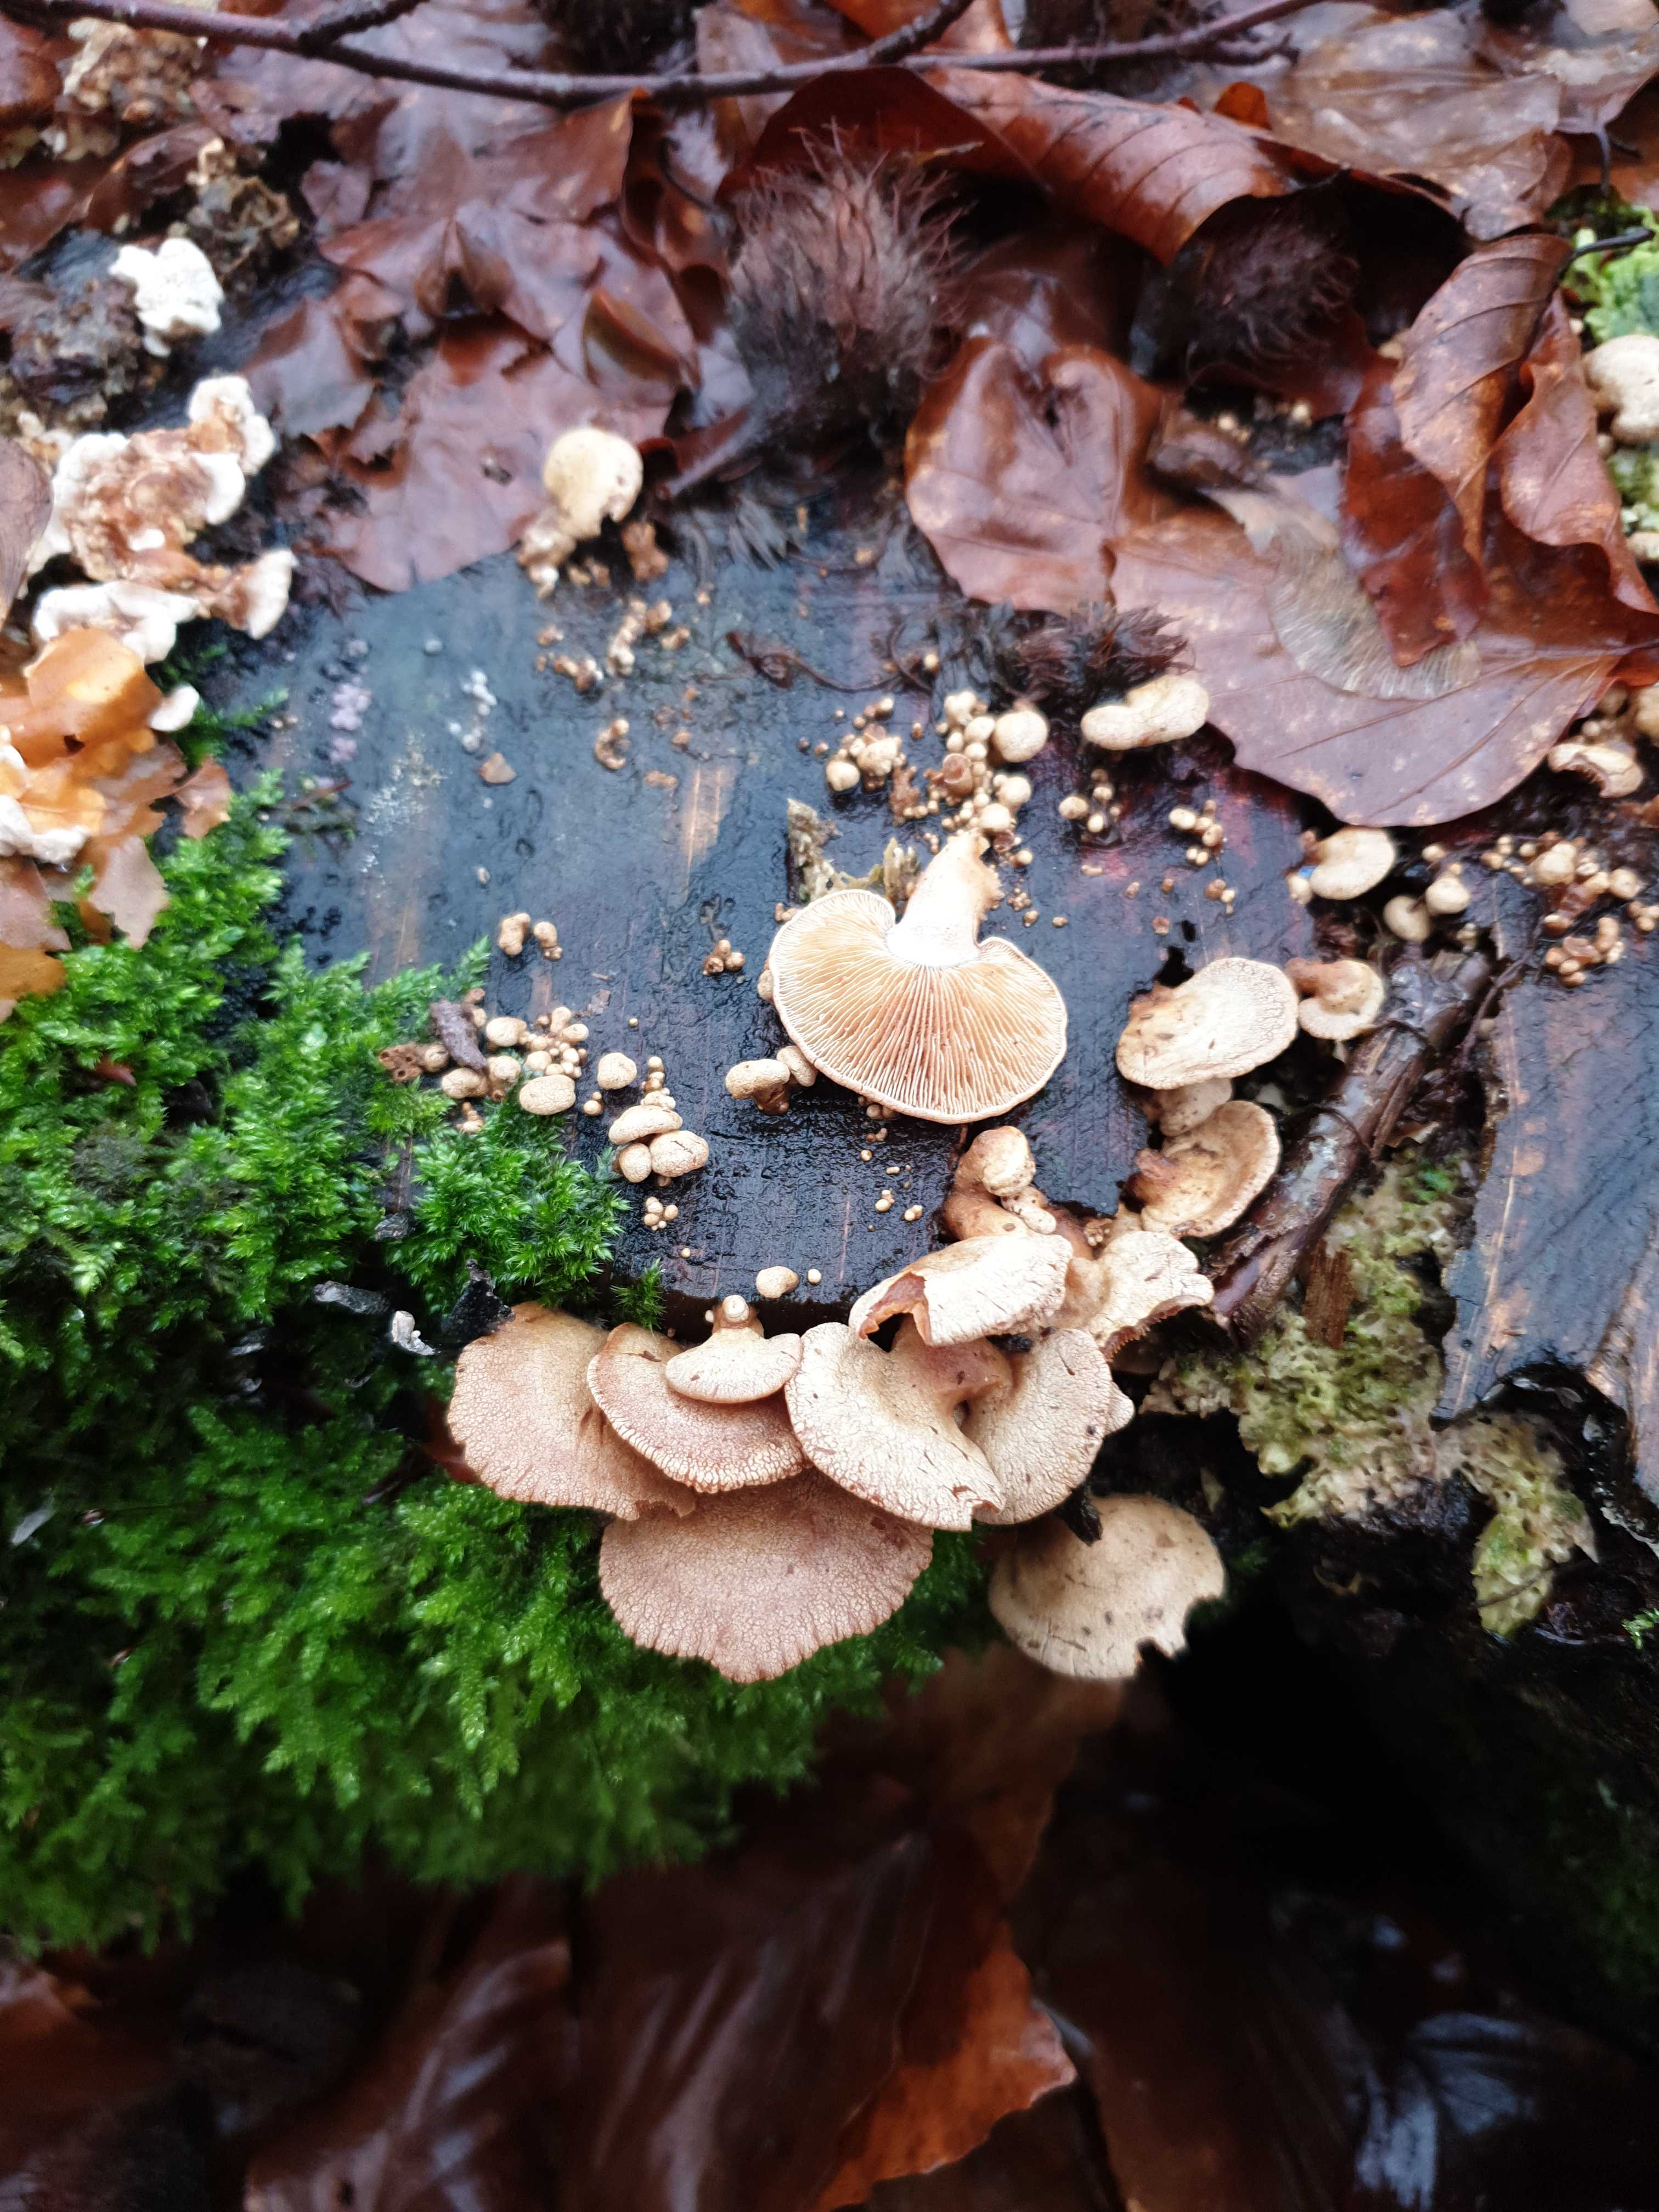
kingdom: Fungi
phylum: Basidiomycota
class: Agaricomycetes
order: Agaricales
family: Mycenaceae
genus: Panellus
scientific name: Panellus stipticus
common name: kliddet epaulethat
